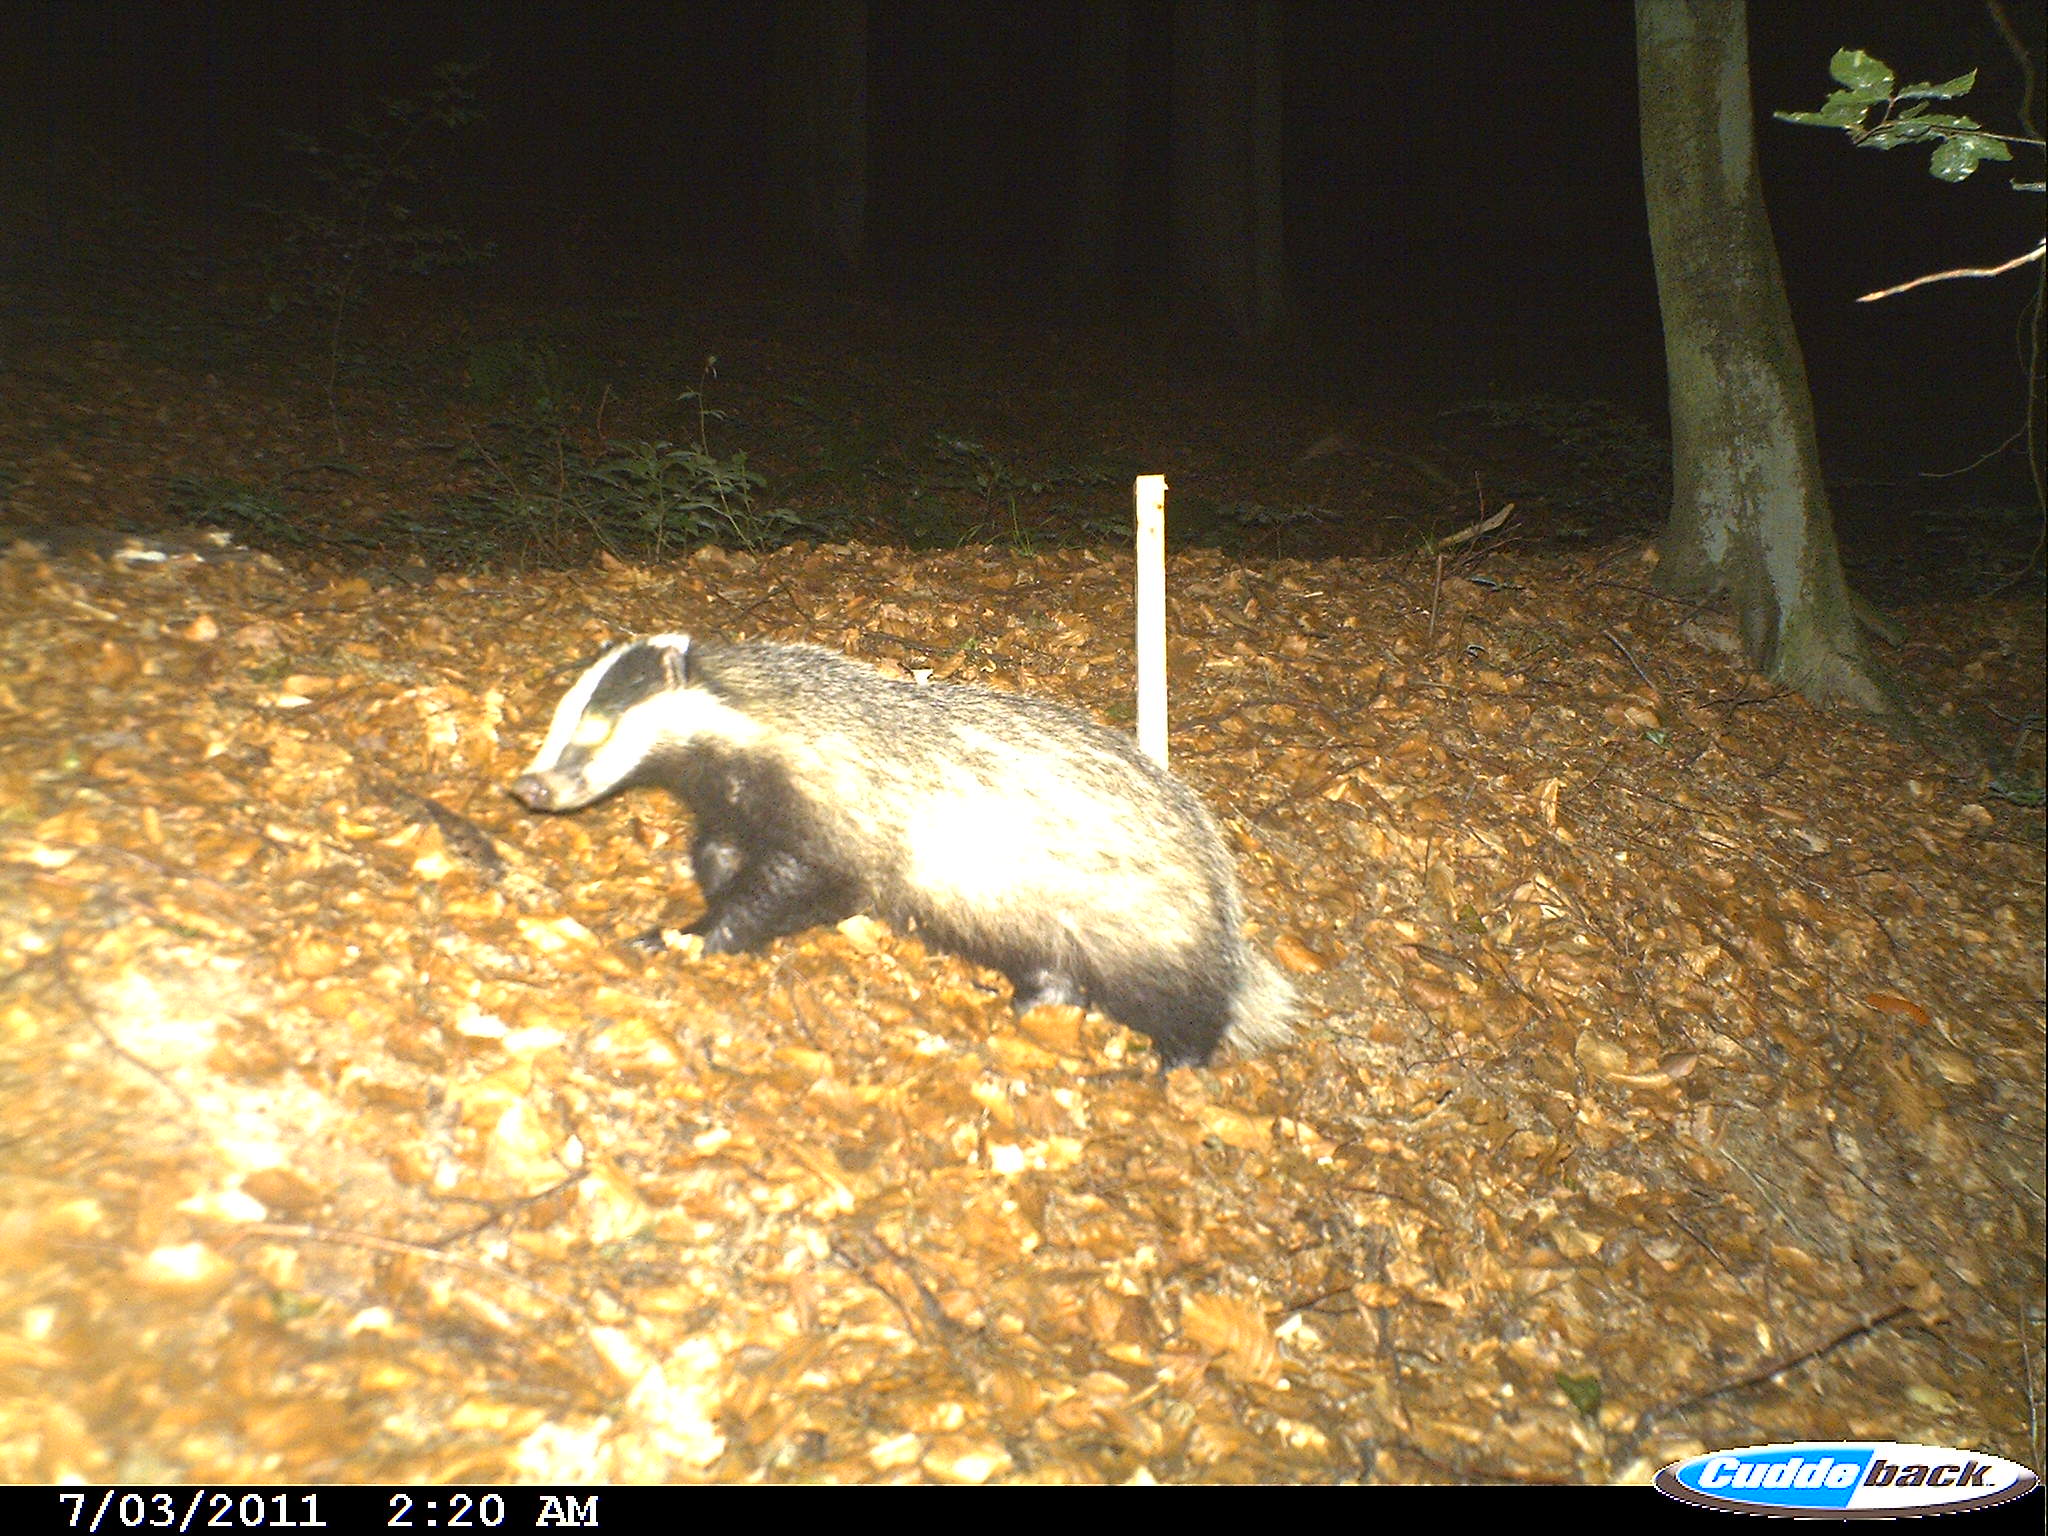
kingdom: Animalia
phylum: Chordata
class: Mammalia
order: Carnivora
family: Mustelidae
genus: Meles
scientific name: Meles meles
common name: Eurasian badger
